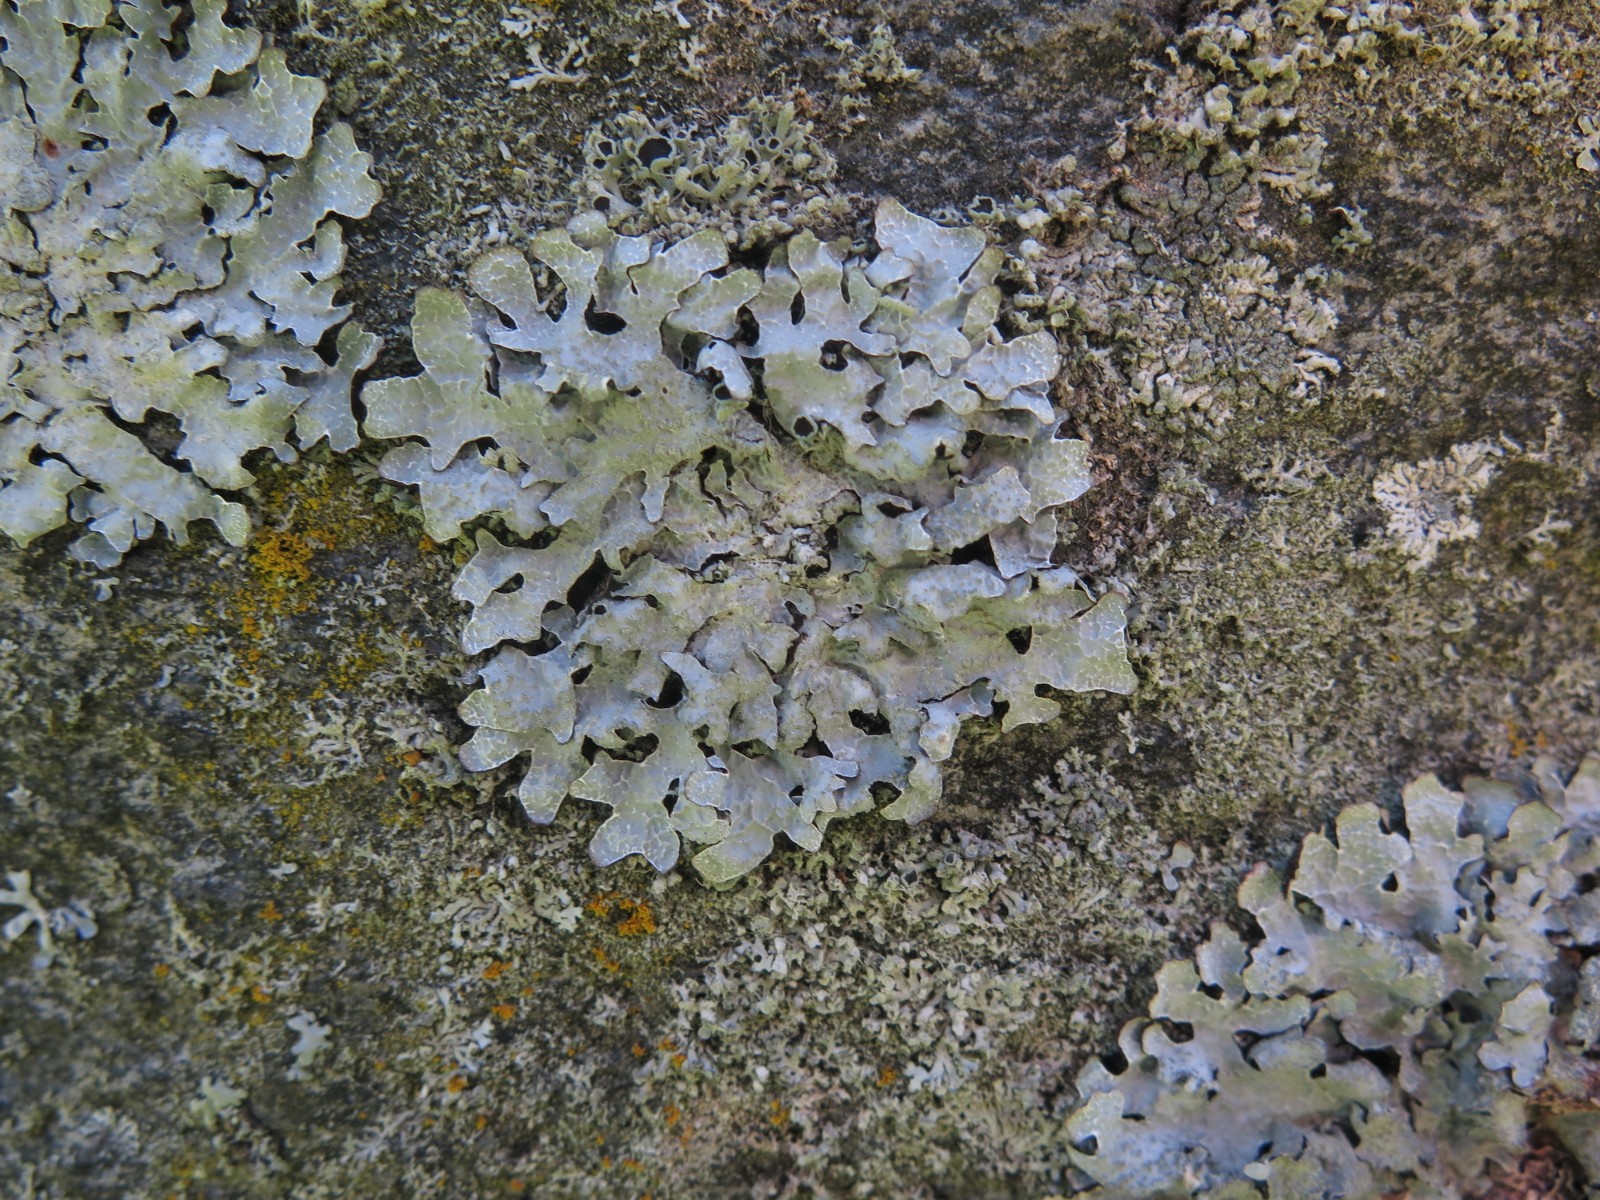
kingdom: Fungi
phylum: Ascomycota
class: Lecanoromycetes
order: Lecanorales
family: Parmeliaceae
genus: Parmelia
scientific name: Parmelia sulcata
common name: rynket skållav
